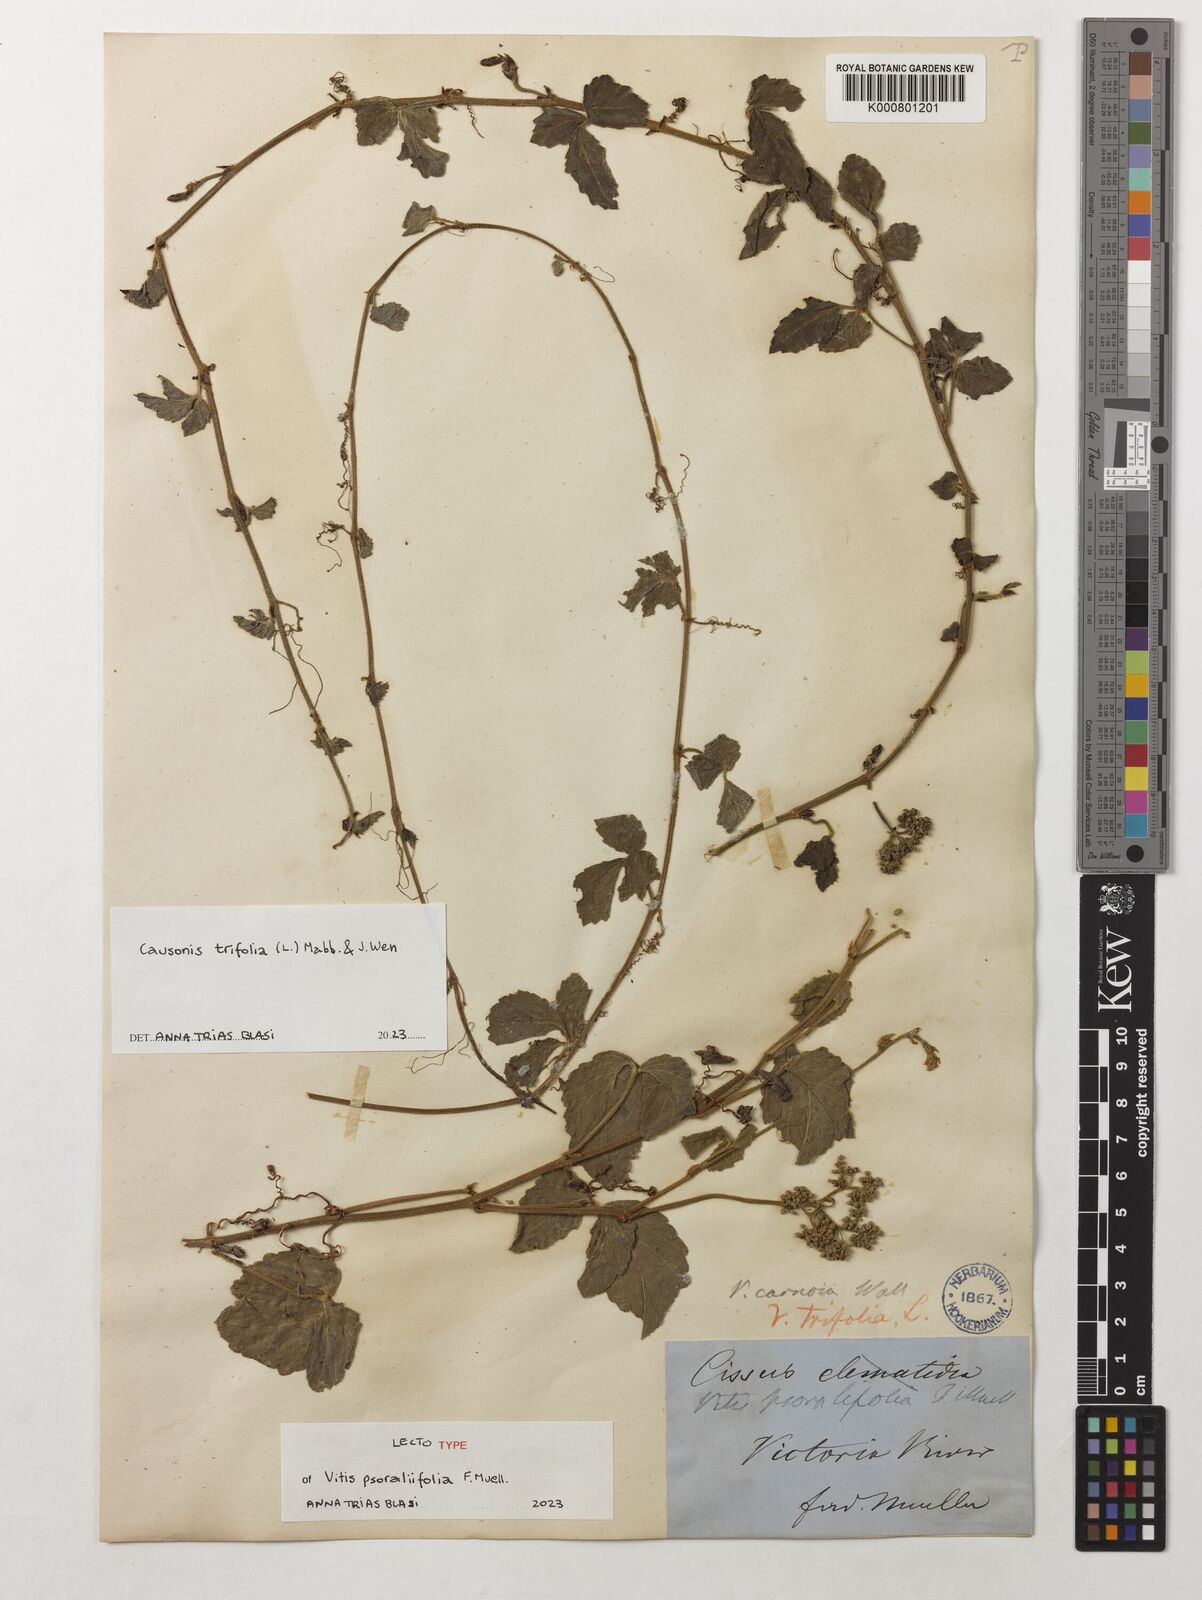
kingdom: Plantae
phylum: Tracheophyta
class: Magnoliopsida
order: Vitales
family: Vitaceae
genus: Causonis
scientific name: Causonis trifolia
